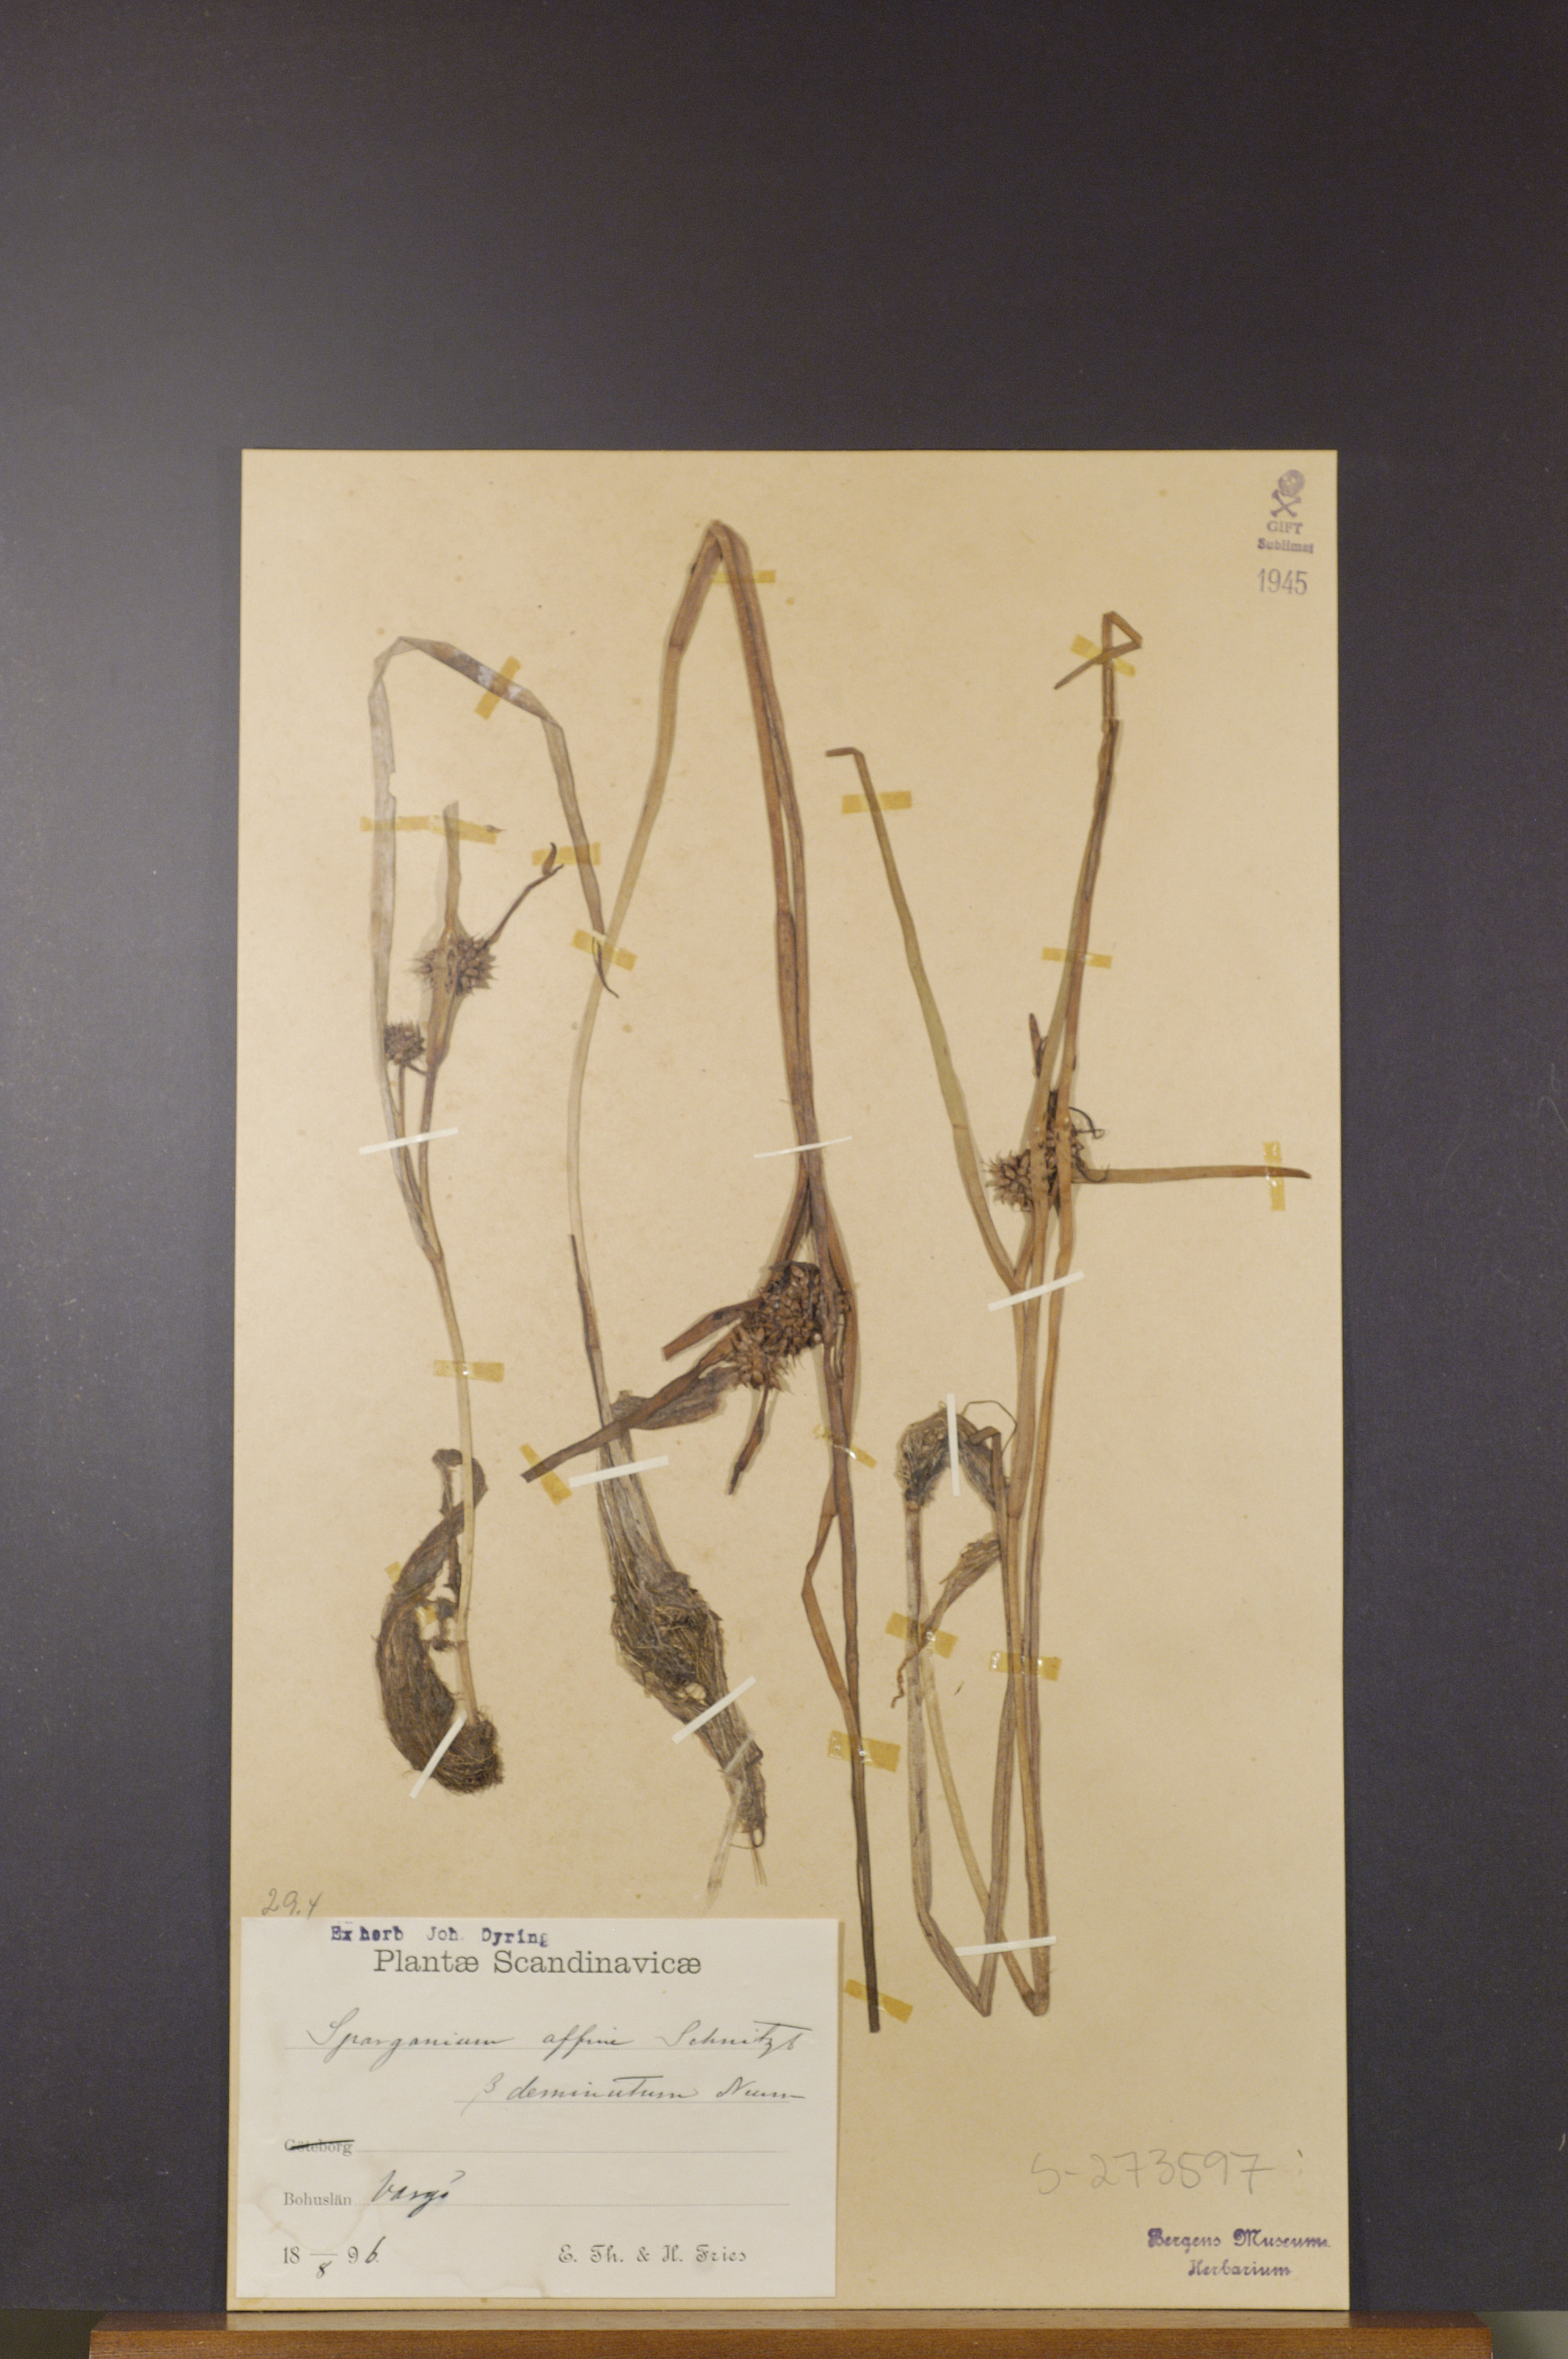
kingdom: Plantae
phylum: Tracheophyta
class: Liliopsida
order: Poales
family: Typhaceae
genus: Sparganium
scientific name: Sparganium angustifolium
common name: Floating bur-reed
